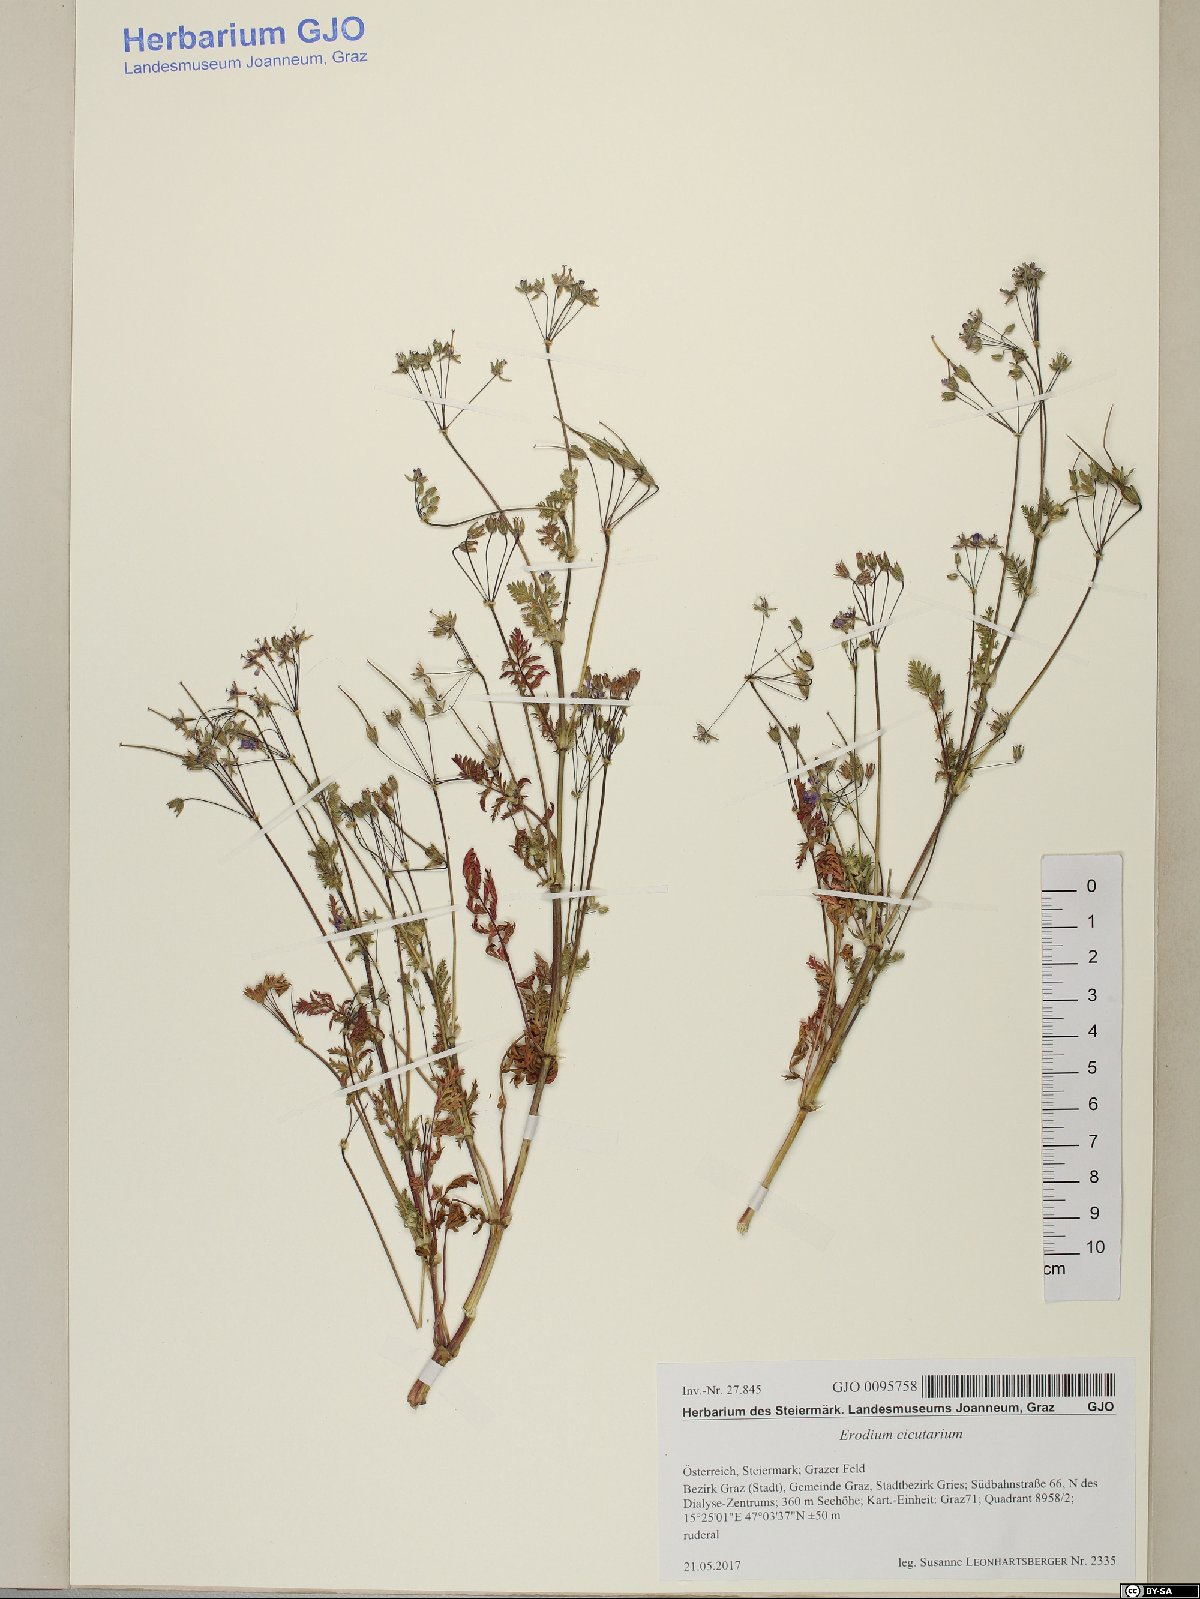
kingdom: Plantae
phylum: Tracheophyta
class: Magnoliopsida
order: Geraniales
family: Geraniaceae
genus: Erodium
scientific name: Erodium cicutarium
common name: Common stork's-bill
